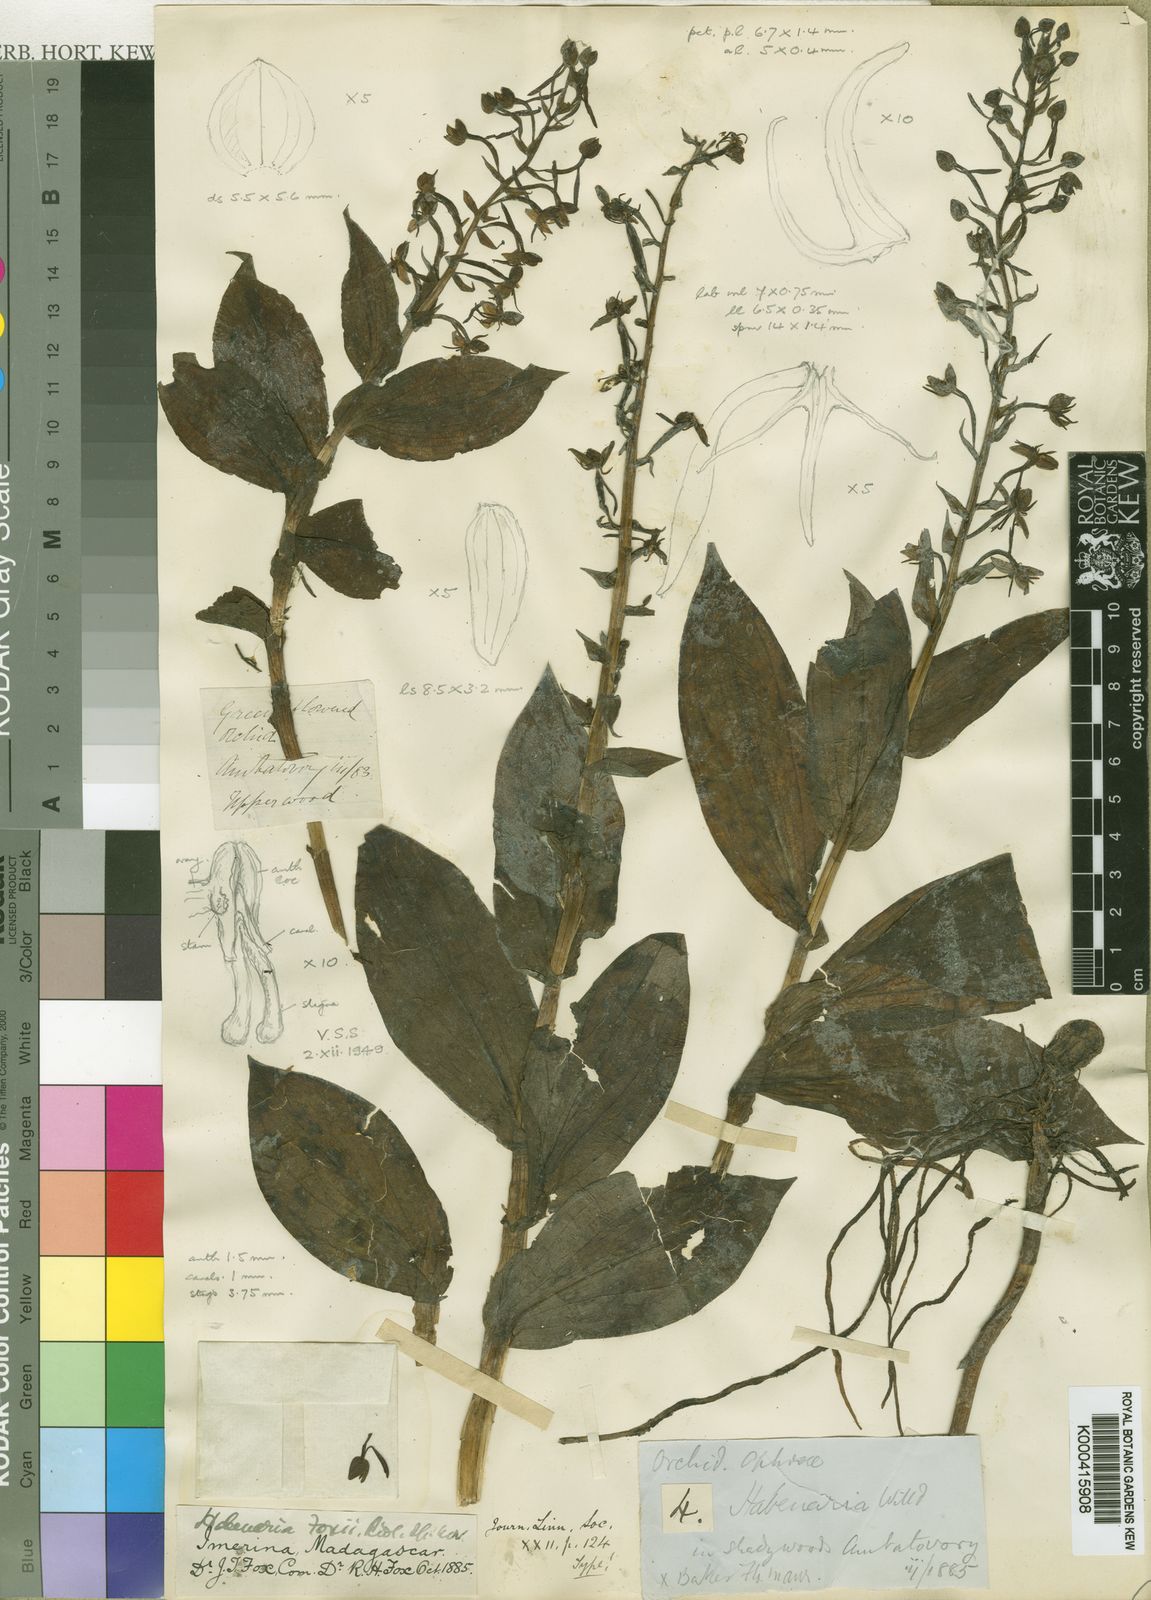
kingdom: Plantae
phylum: Tracheophyta
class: Liliopsida
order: Asparagales
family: Orchidaceae
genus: Habenaria
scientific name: Habenaria foxii
